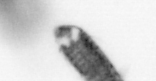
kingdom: Animalia
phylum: Arthropoda
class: Copepoda
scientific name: Copepoda
